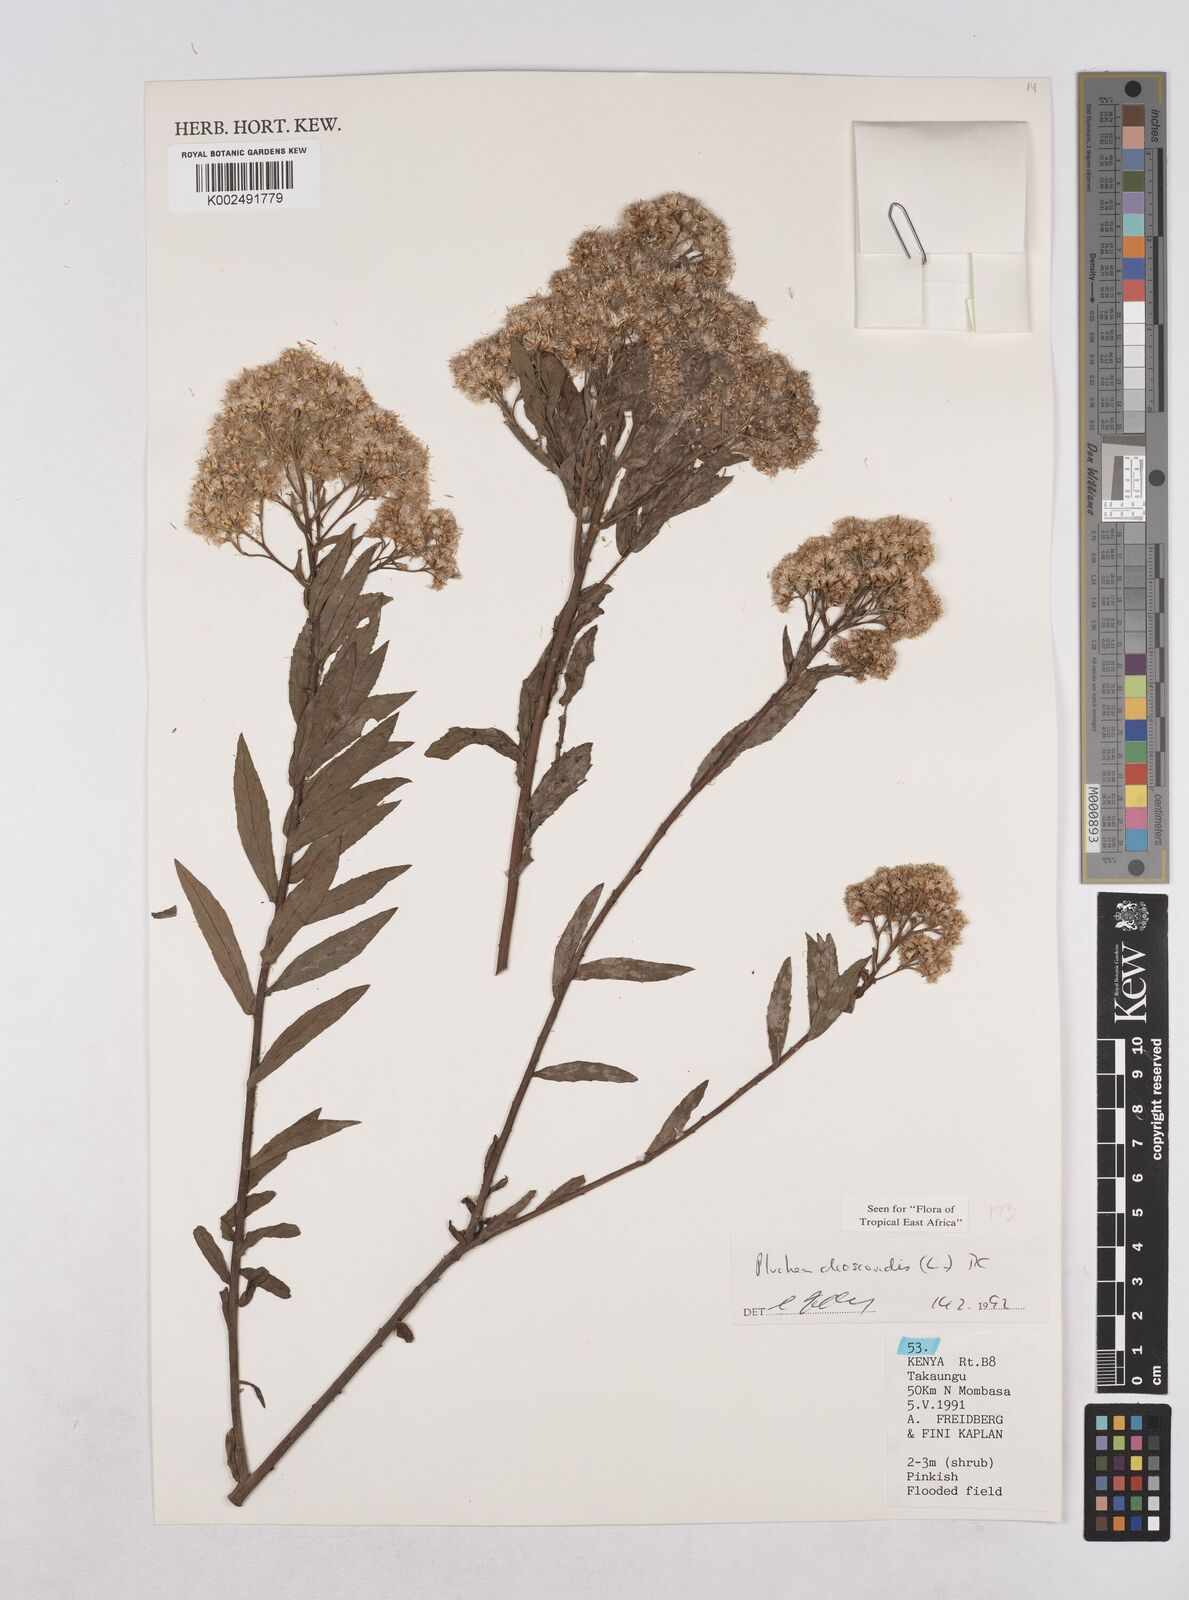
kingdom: Plantae
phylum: Tracheophyta
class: Magnoliopsida
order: Asterales
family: Asteraceae
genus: Pluchea
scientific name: Pluchea dioscoridis
